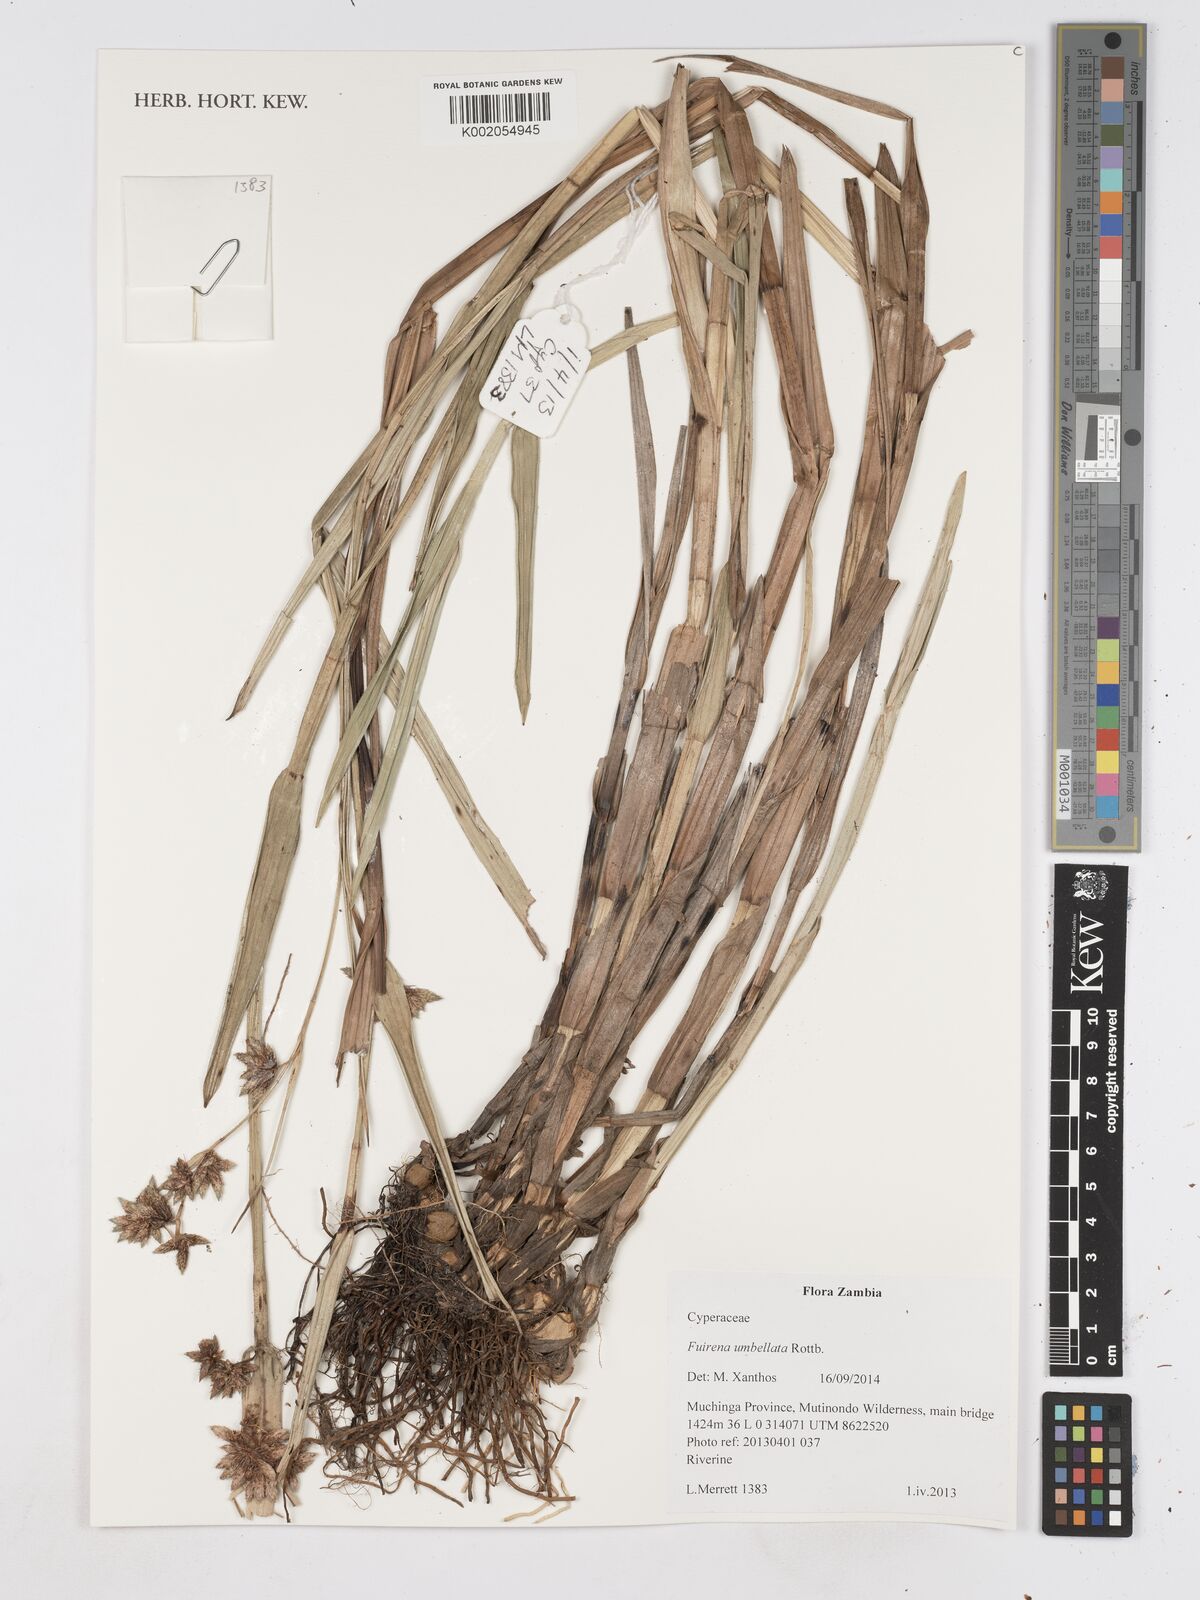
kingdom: Plantae
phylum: Tracheophyta
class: Liliopsida
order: Poales
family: Cyperaceae
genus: Fuirena
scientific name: Fuirena umbellata
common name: Yefen
